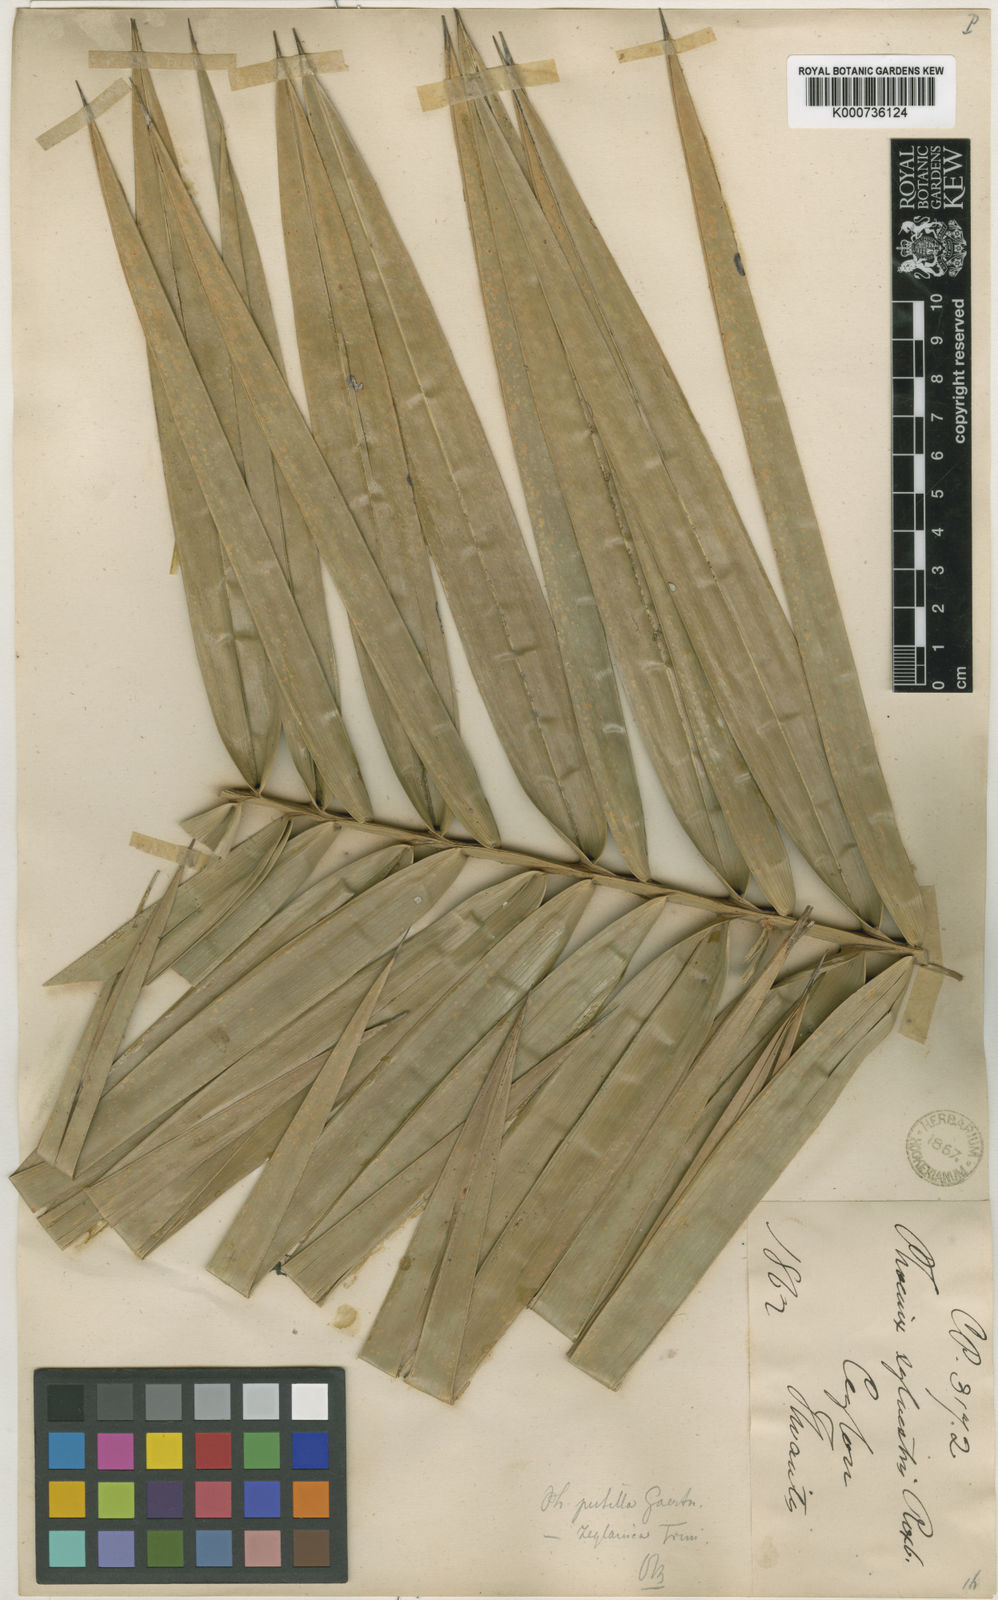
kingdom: Plantae
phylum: Tracheophyta
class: Liliopsida
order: Arecales
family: Arecaceae
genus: Phoenix
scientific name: Phoenix pusilla
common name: Flour palm
